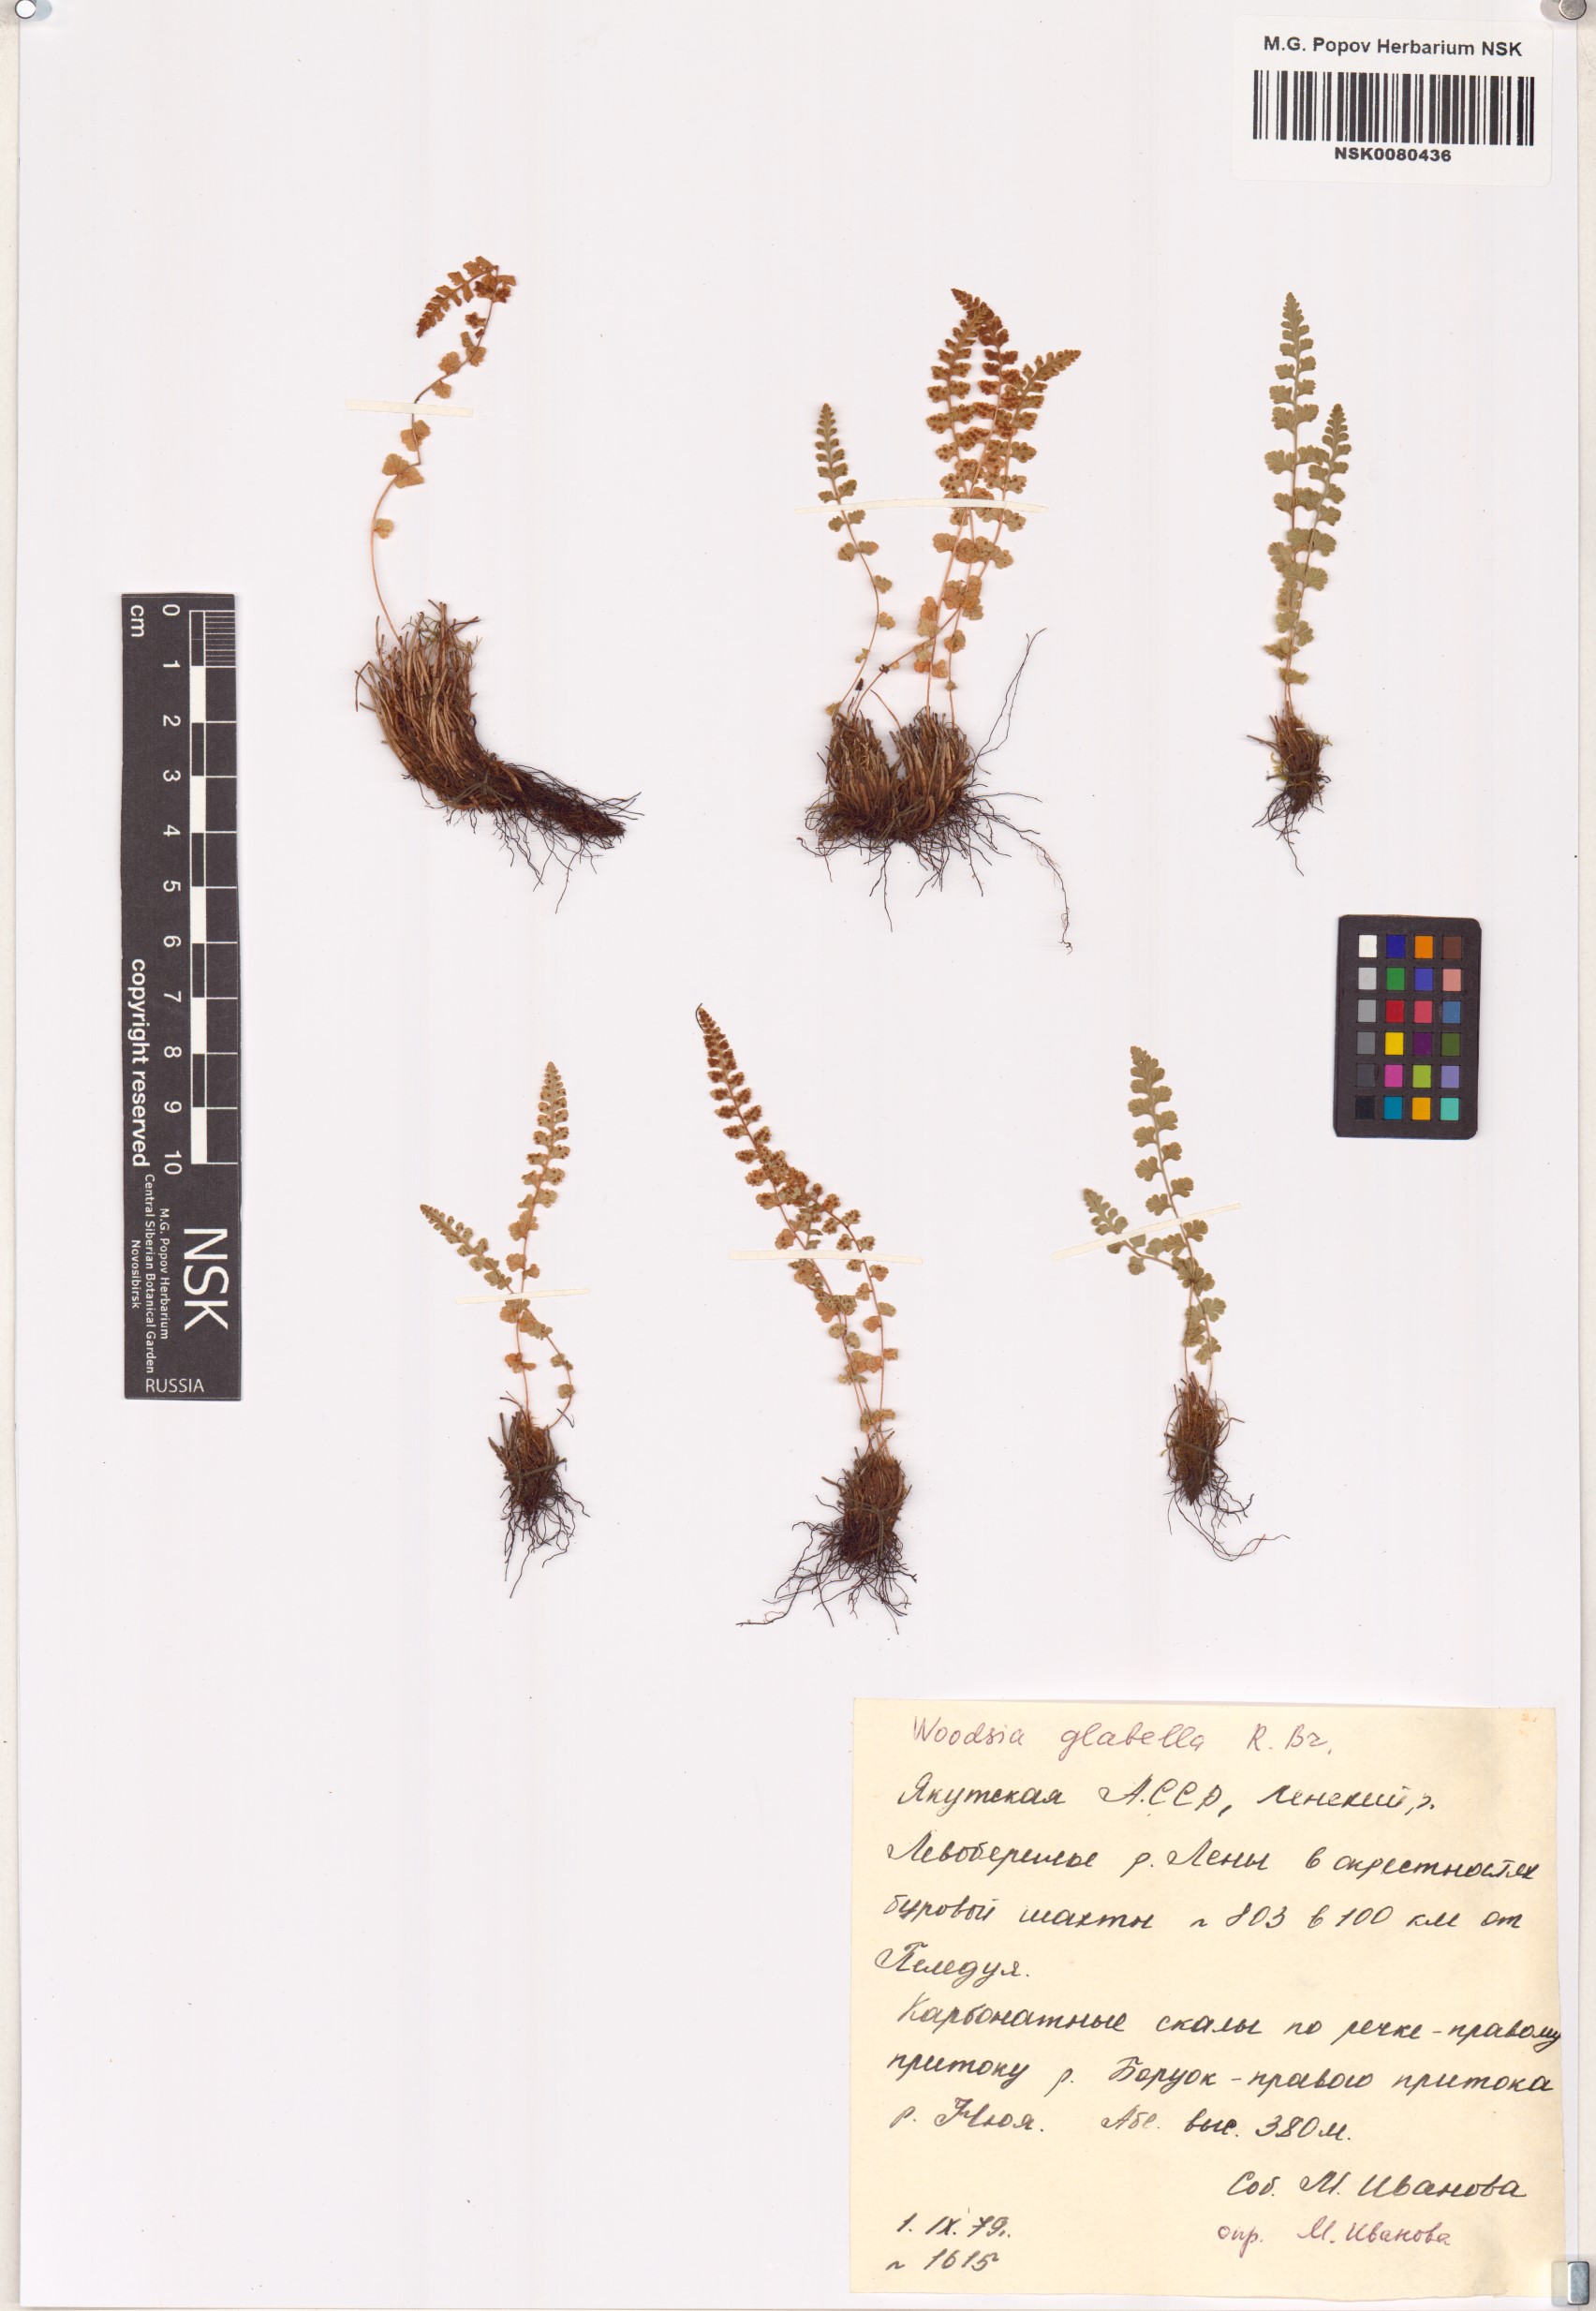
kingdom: Plantae
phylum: Tracheophyta
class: Polypodiopsida
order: Polypodiales
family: Woodsiaceae
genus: Woodsia
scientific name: Woodsia glabella
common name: Smooth woodsia
